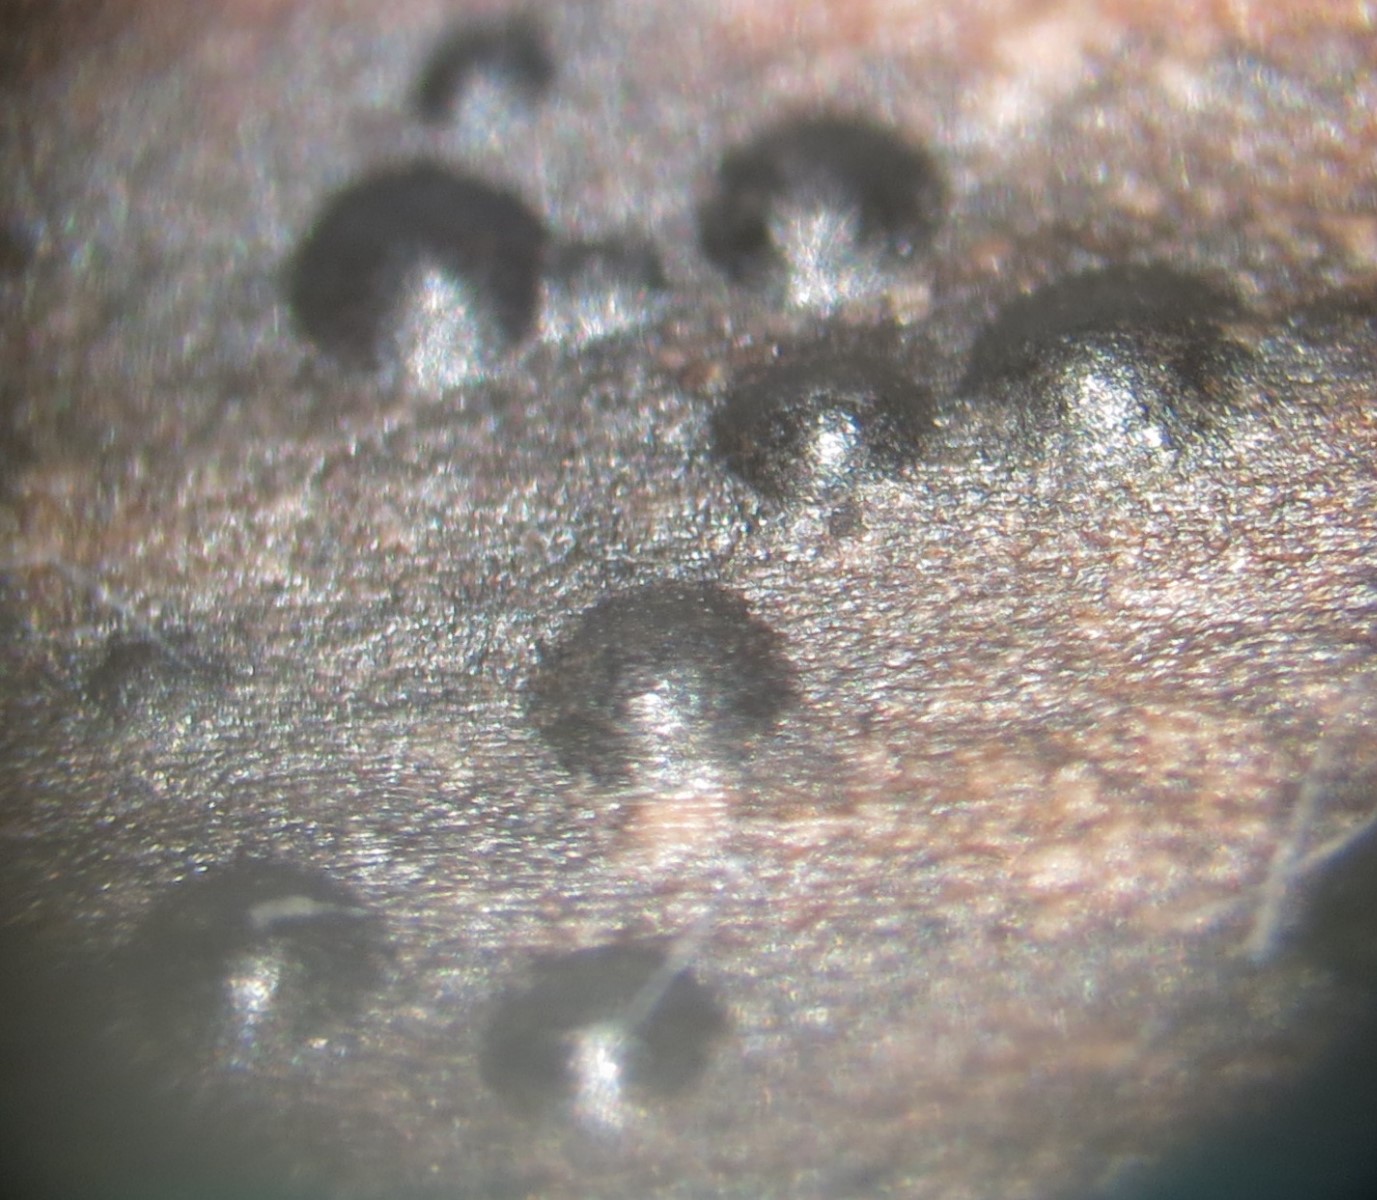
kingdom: Fungi
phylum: Ascomycota
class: Leotiomycetes
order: Helotiales
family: Ploettnerulaceae
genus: Cadophora
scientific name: Cadophora fallopiae
